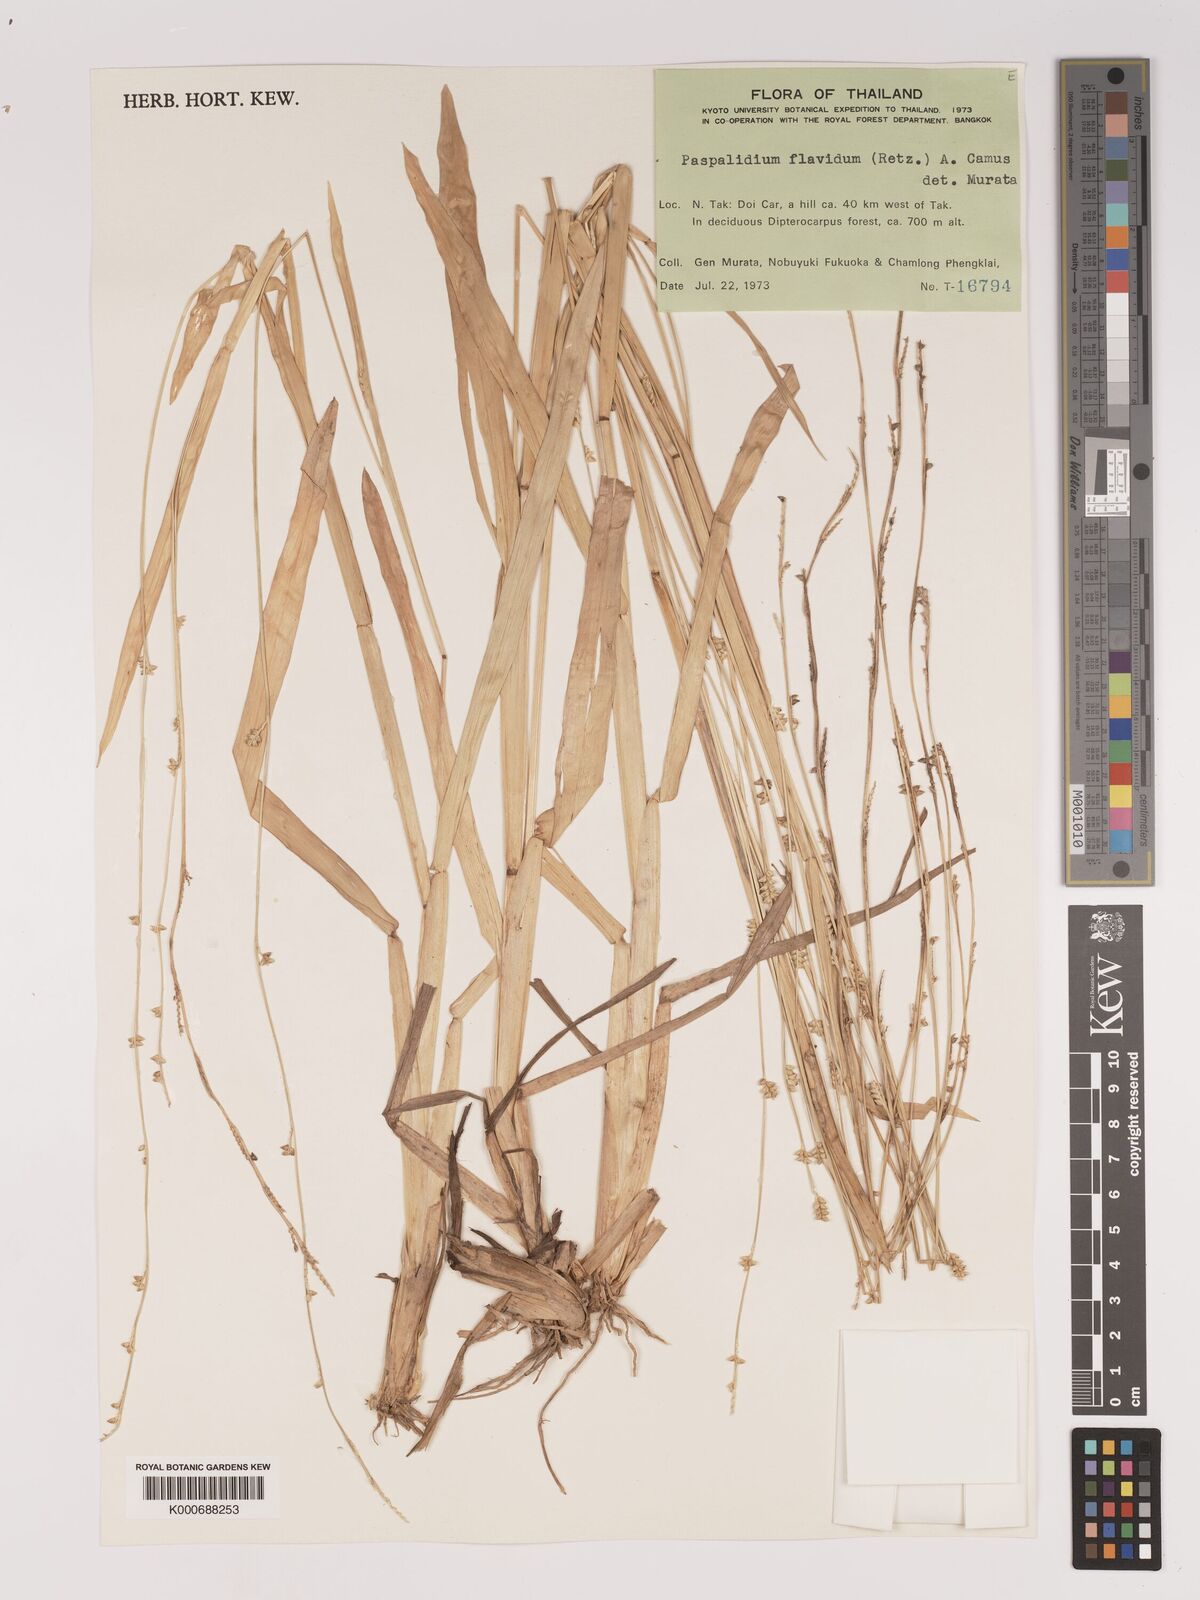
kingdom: Plantae
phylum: Tracheophyta
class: Liliopsida
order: Poales
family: Poaceae
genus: Setaria
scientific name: Setaria flavida
